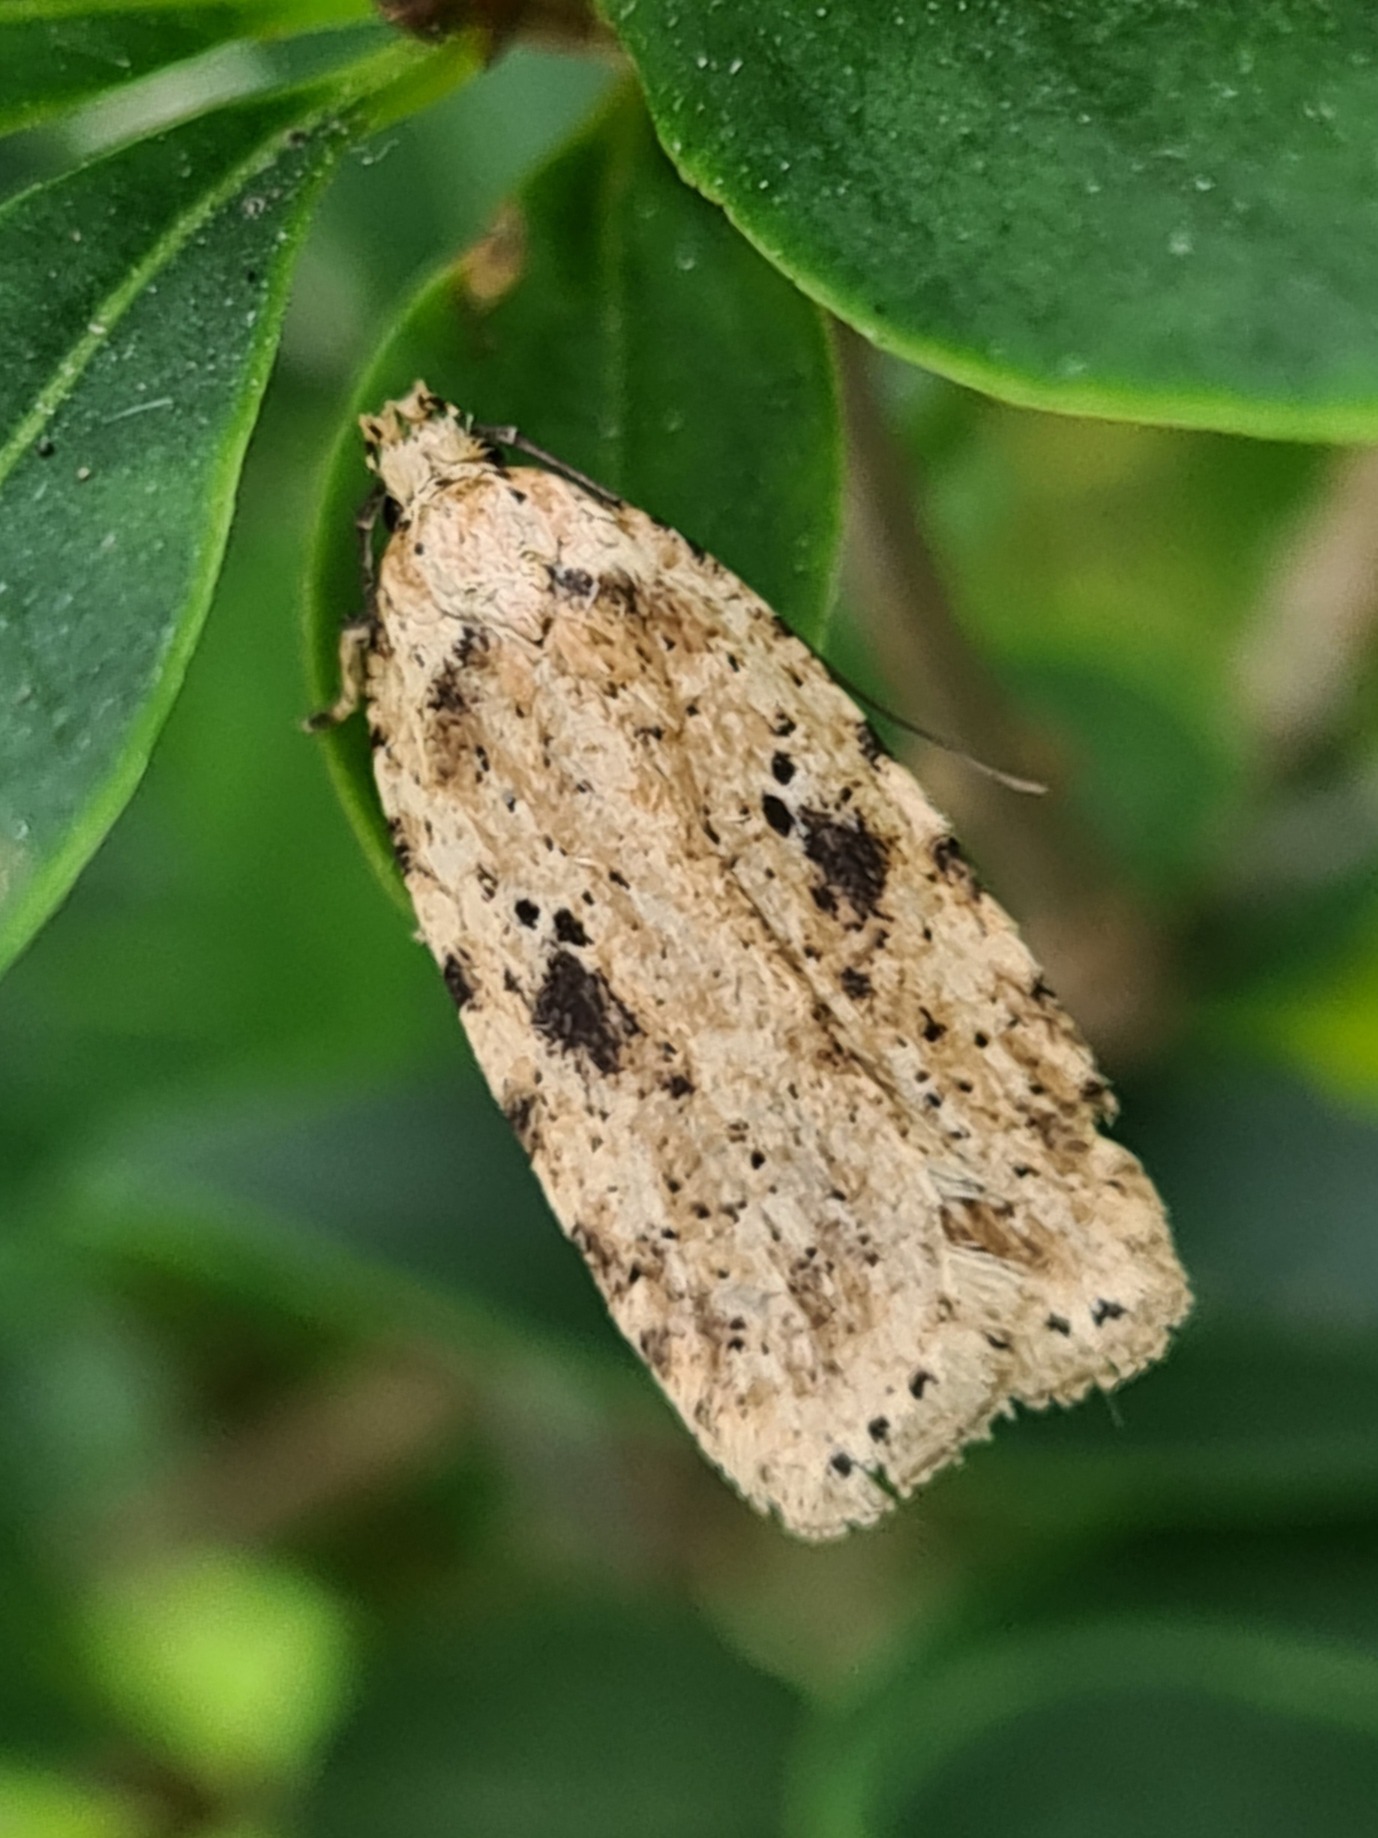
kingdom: Animalia
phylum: Arthropoda
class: Insecta
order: Lepidoptera
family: Depressariidae
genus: Agonopterix
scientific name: Agonopterix arenella
